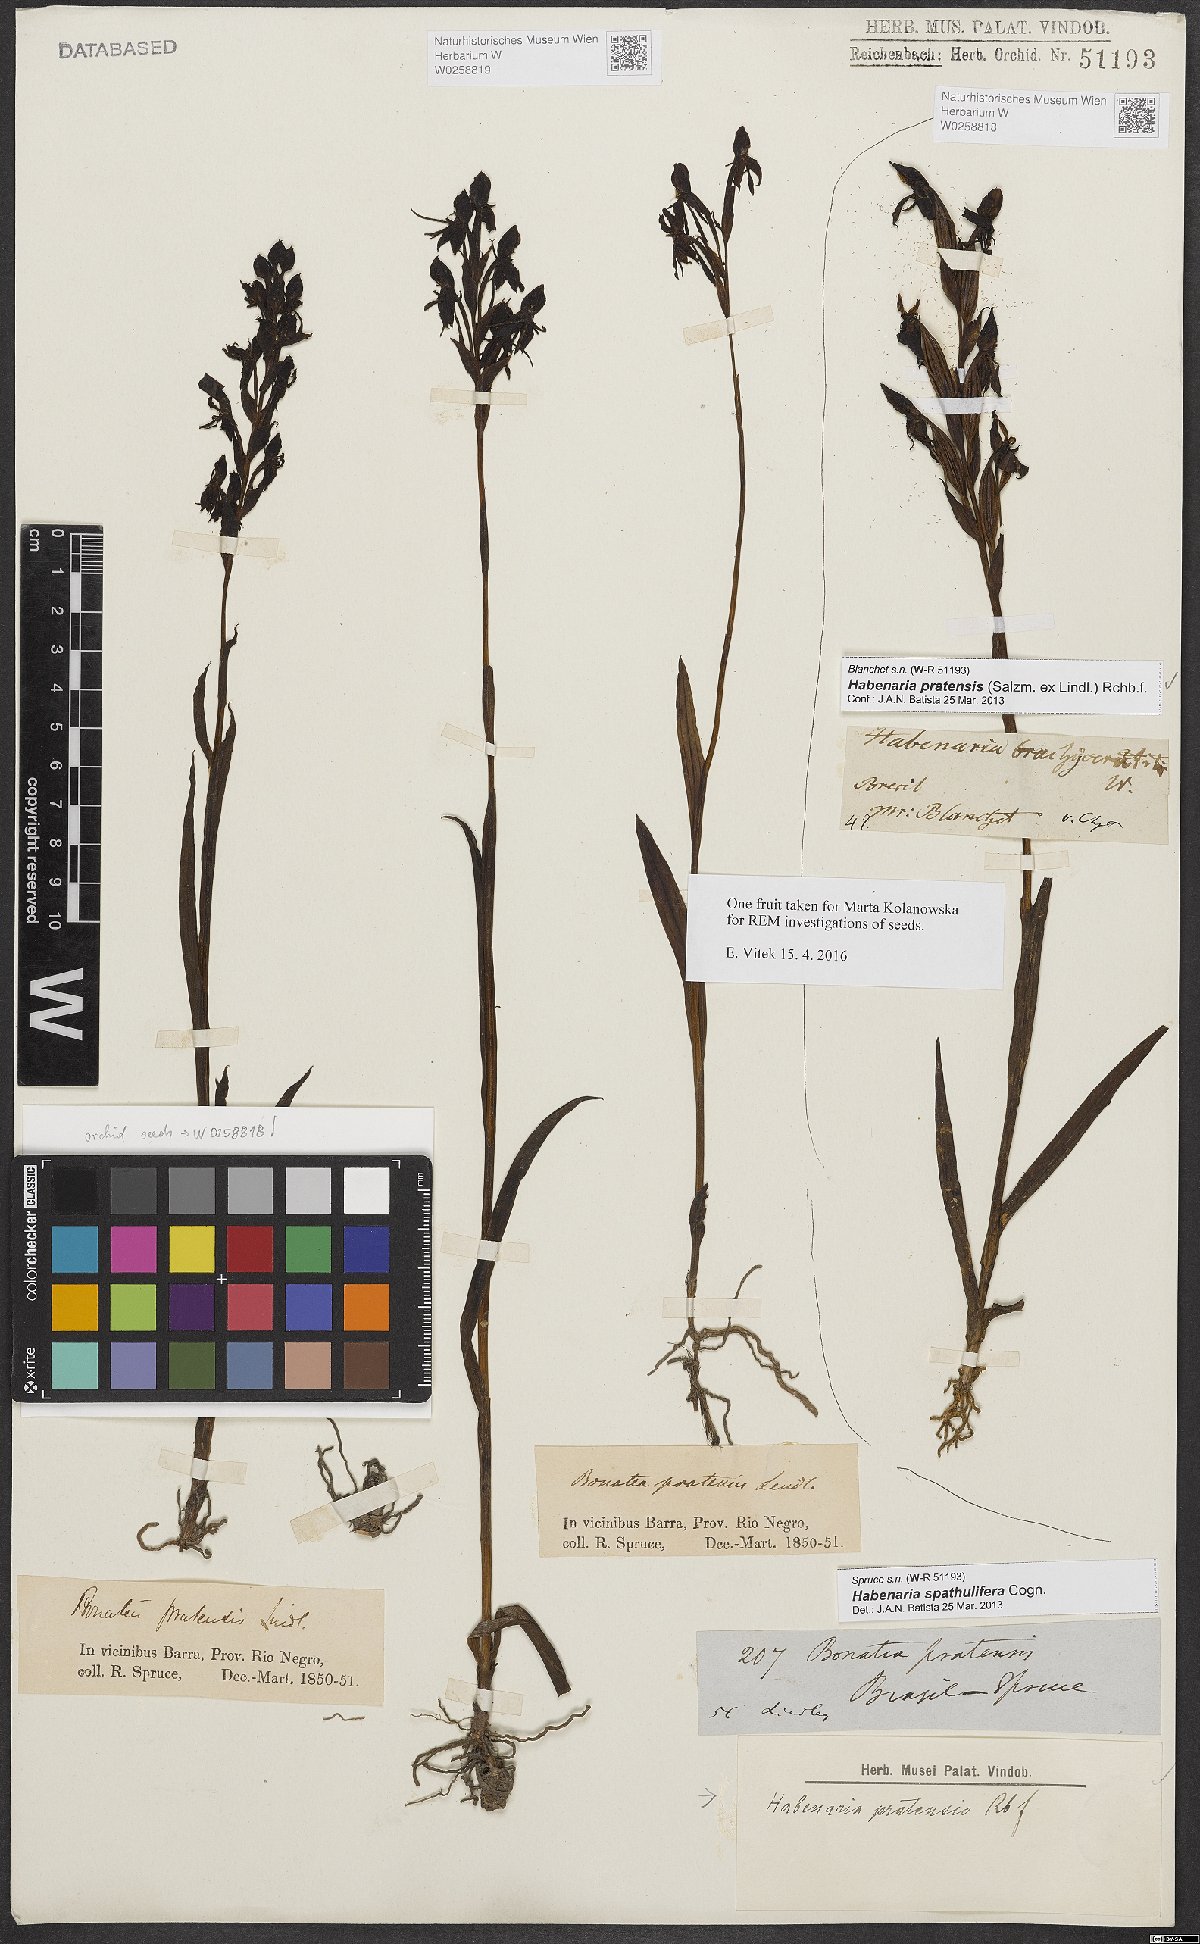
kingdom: Plantae
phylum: Tracheophyta
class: Liliopsida
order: Asparagales
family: Orchidaceae
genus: Habenaria
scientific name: Habenaria pratensis
